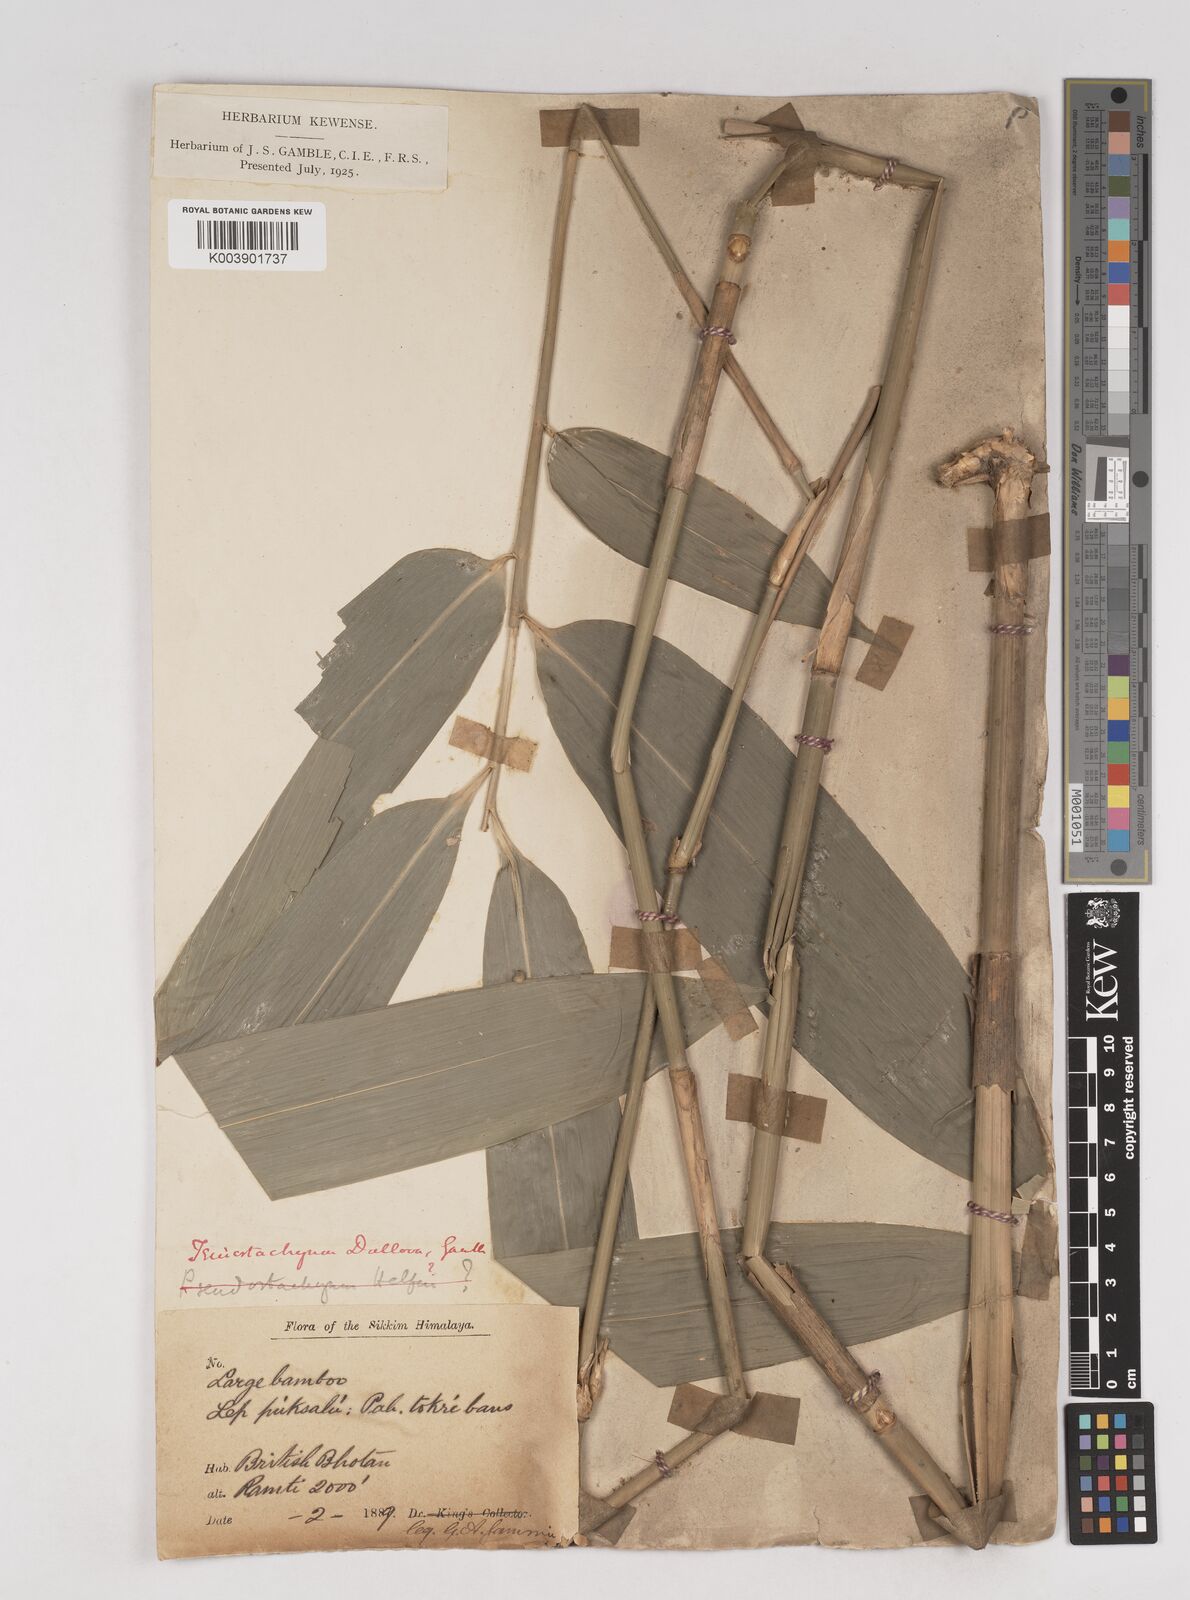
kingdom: Plantae
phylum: Tracheophyta
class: Liliopsida
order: Poales
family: Poaceae
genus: Schizostachyum
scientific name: Schizostachyum dullooa
